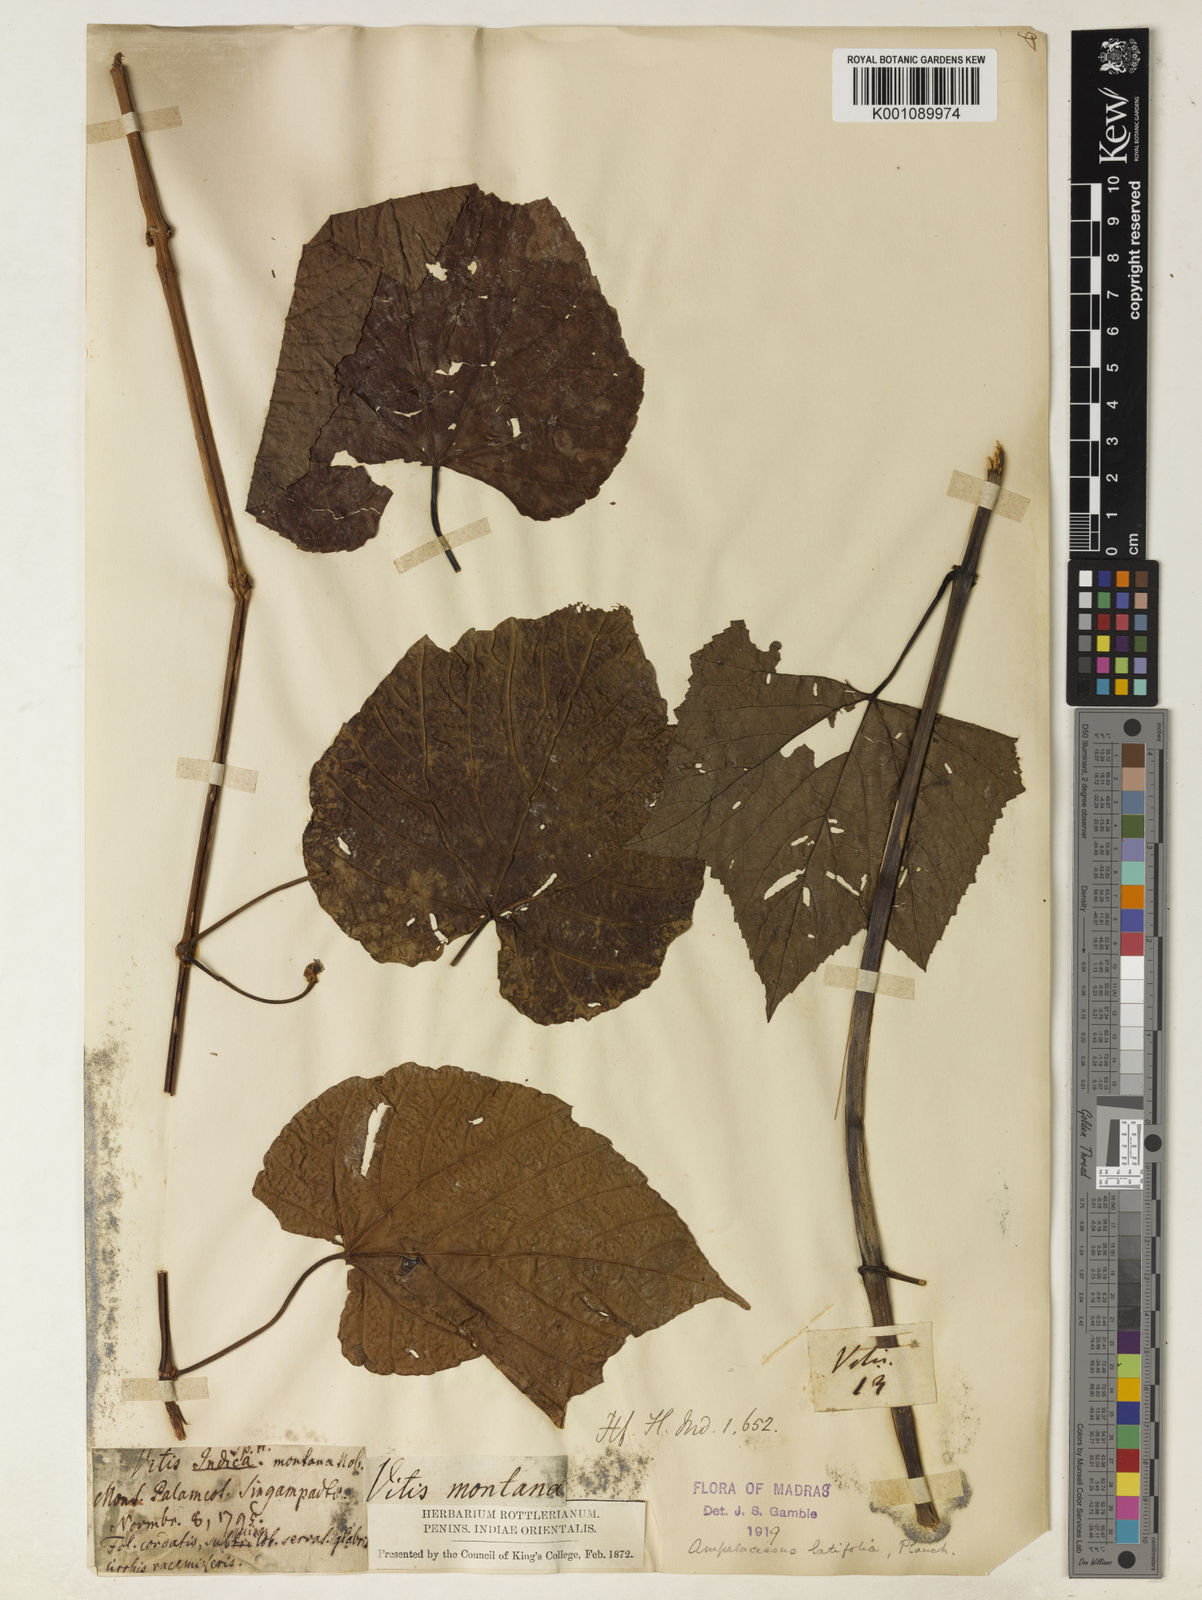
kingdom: Plantae
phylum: Tracheophyta
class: Magnoliopsida
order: Vitales
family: Vitaceae
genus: Ampelocissus
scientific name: Ampelocissus latifolia
